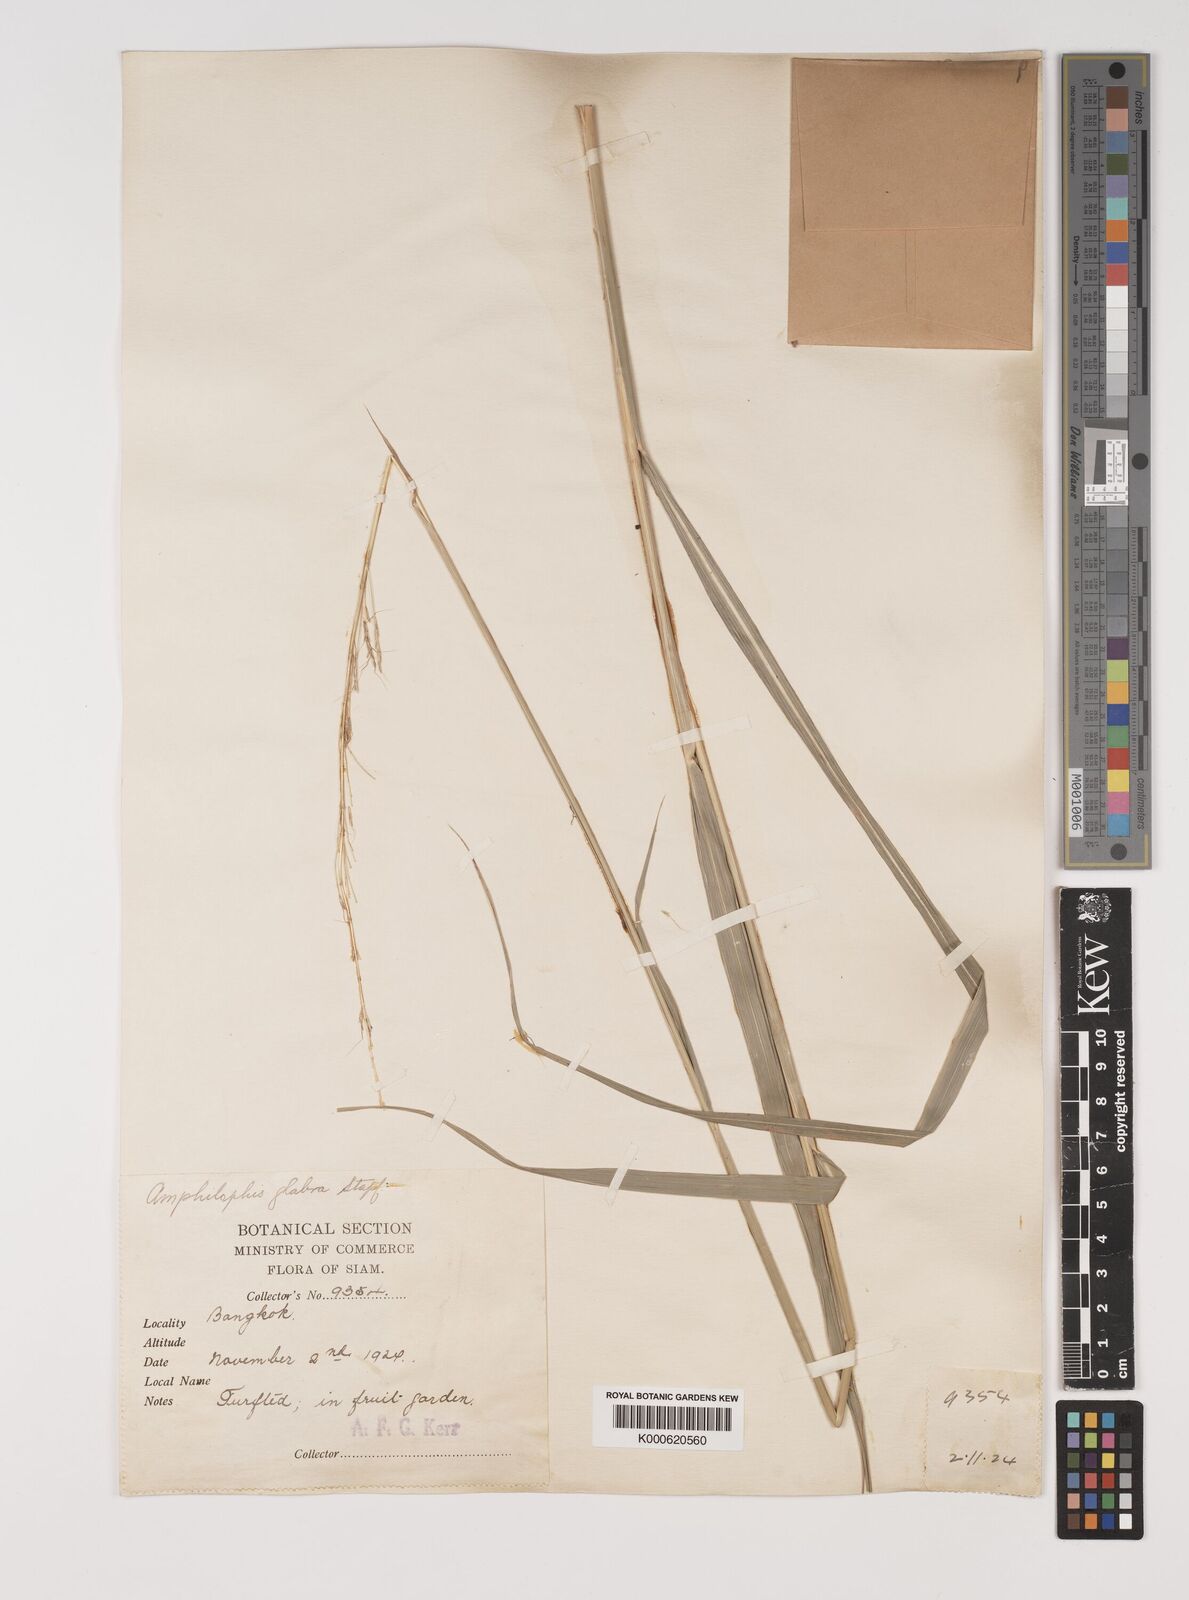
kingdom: Plantae
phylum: Tracheophyta
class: Liliopsida
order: Poales
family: Poaceae
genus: Bothriochloa
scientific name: Bothriochloa bladhii
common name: Caucasian bluestem
